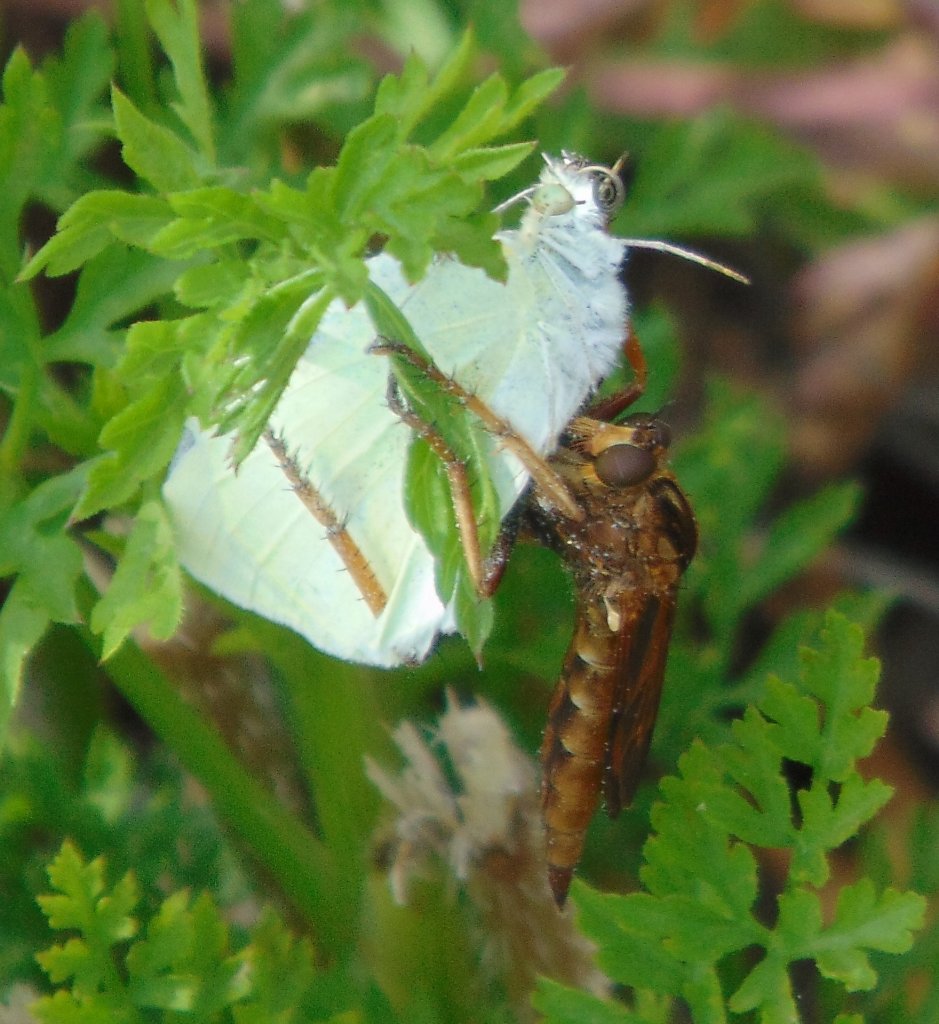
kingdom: Animalia
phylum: Arthropoda
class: Insecta
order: Lepidoptera
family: Pieridae
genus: Pieris
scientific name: Pieris rapae
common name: Cabbage White
